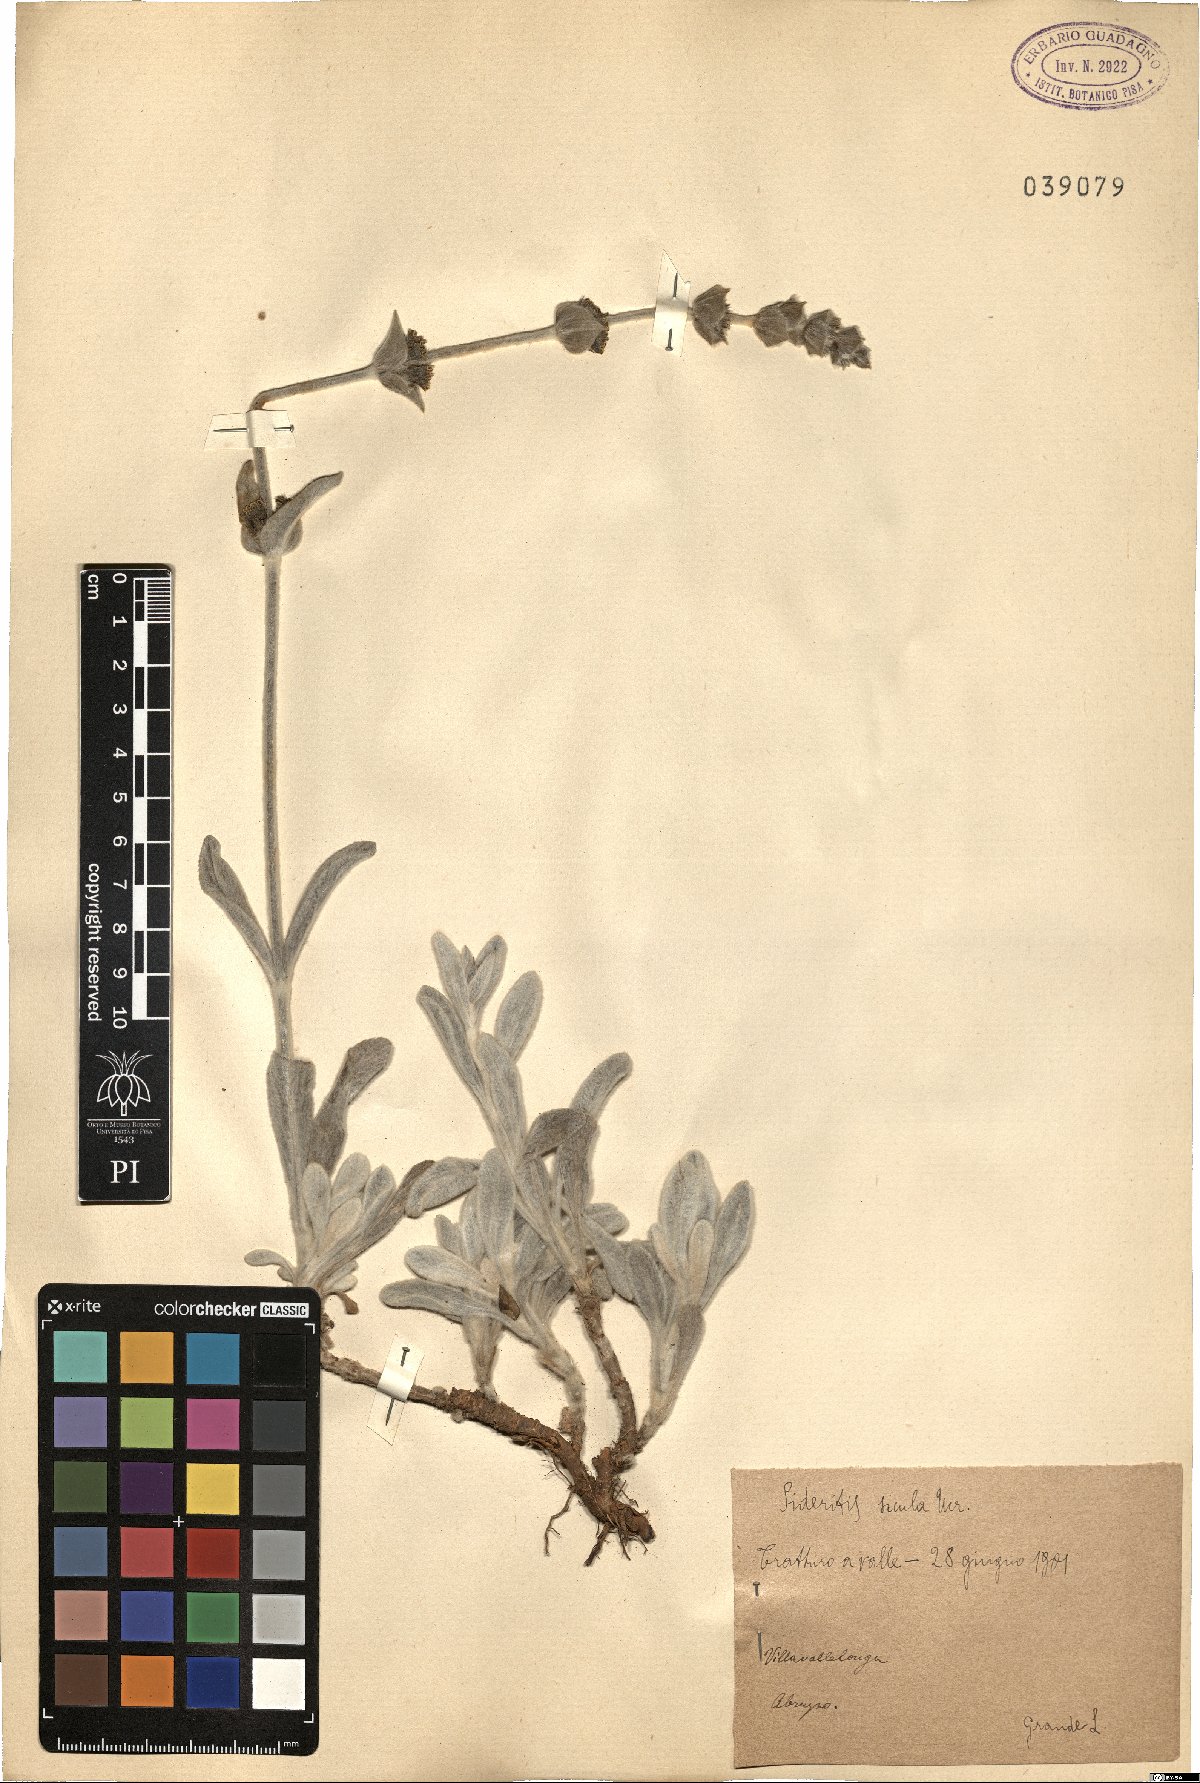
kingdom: Plantae
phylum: Tracheophyta
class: Magnoliopsida
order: Lamiales
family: Lamiaceae
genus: Sideritis
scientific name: Sideritis italica
